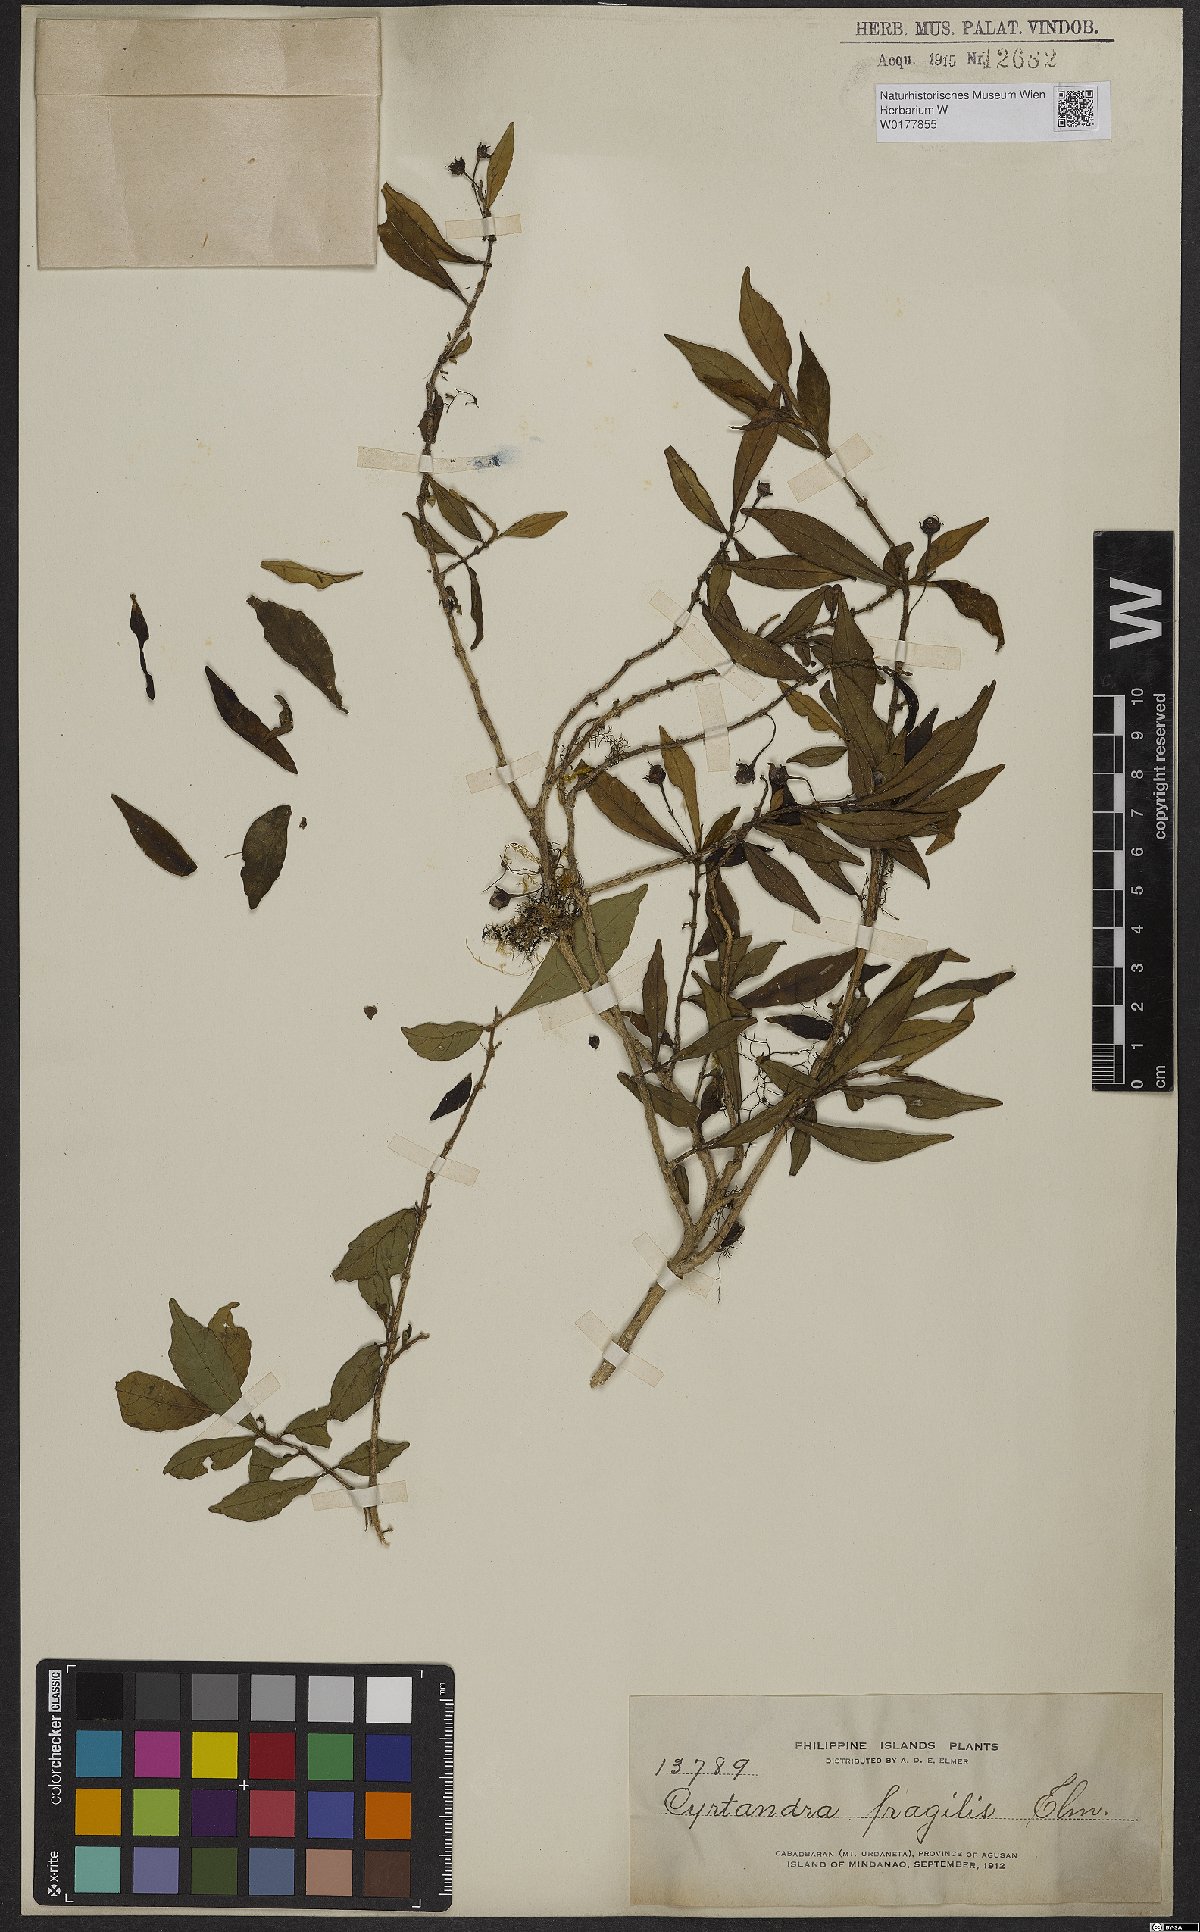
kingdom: Plantae
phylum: Tracheophyta
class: Magnoliopsida
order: Lamiales
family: Gesneriaceae
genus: Cyrtandra
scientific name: Cyrtandra parvifolia
